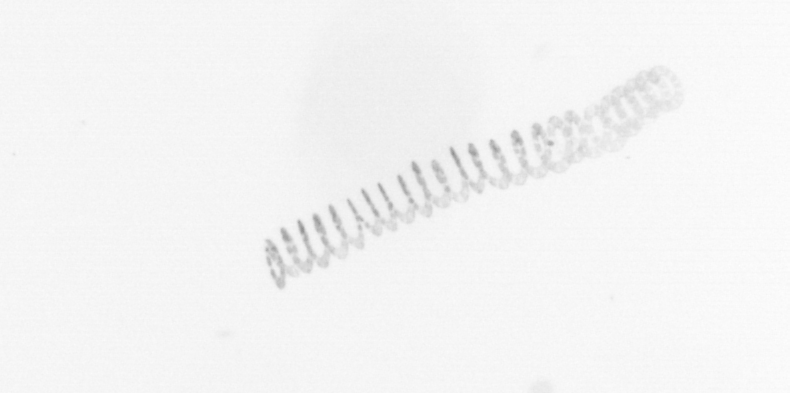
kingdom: Chromista
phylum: Ochrophyta
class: Bacillariophyceae
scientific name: Bacillariophyceae
